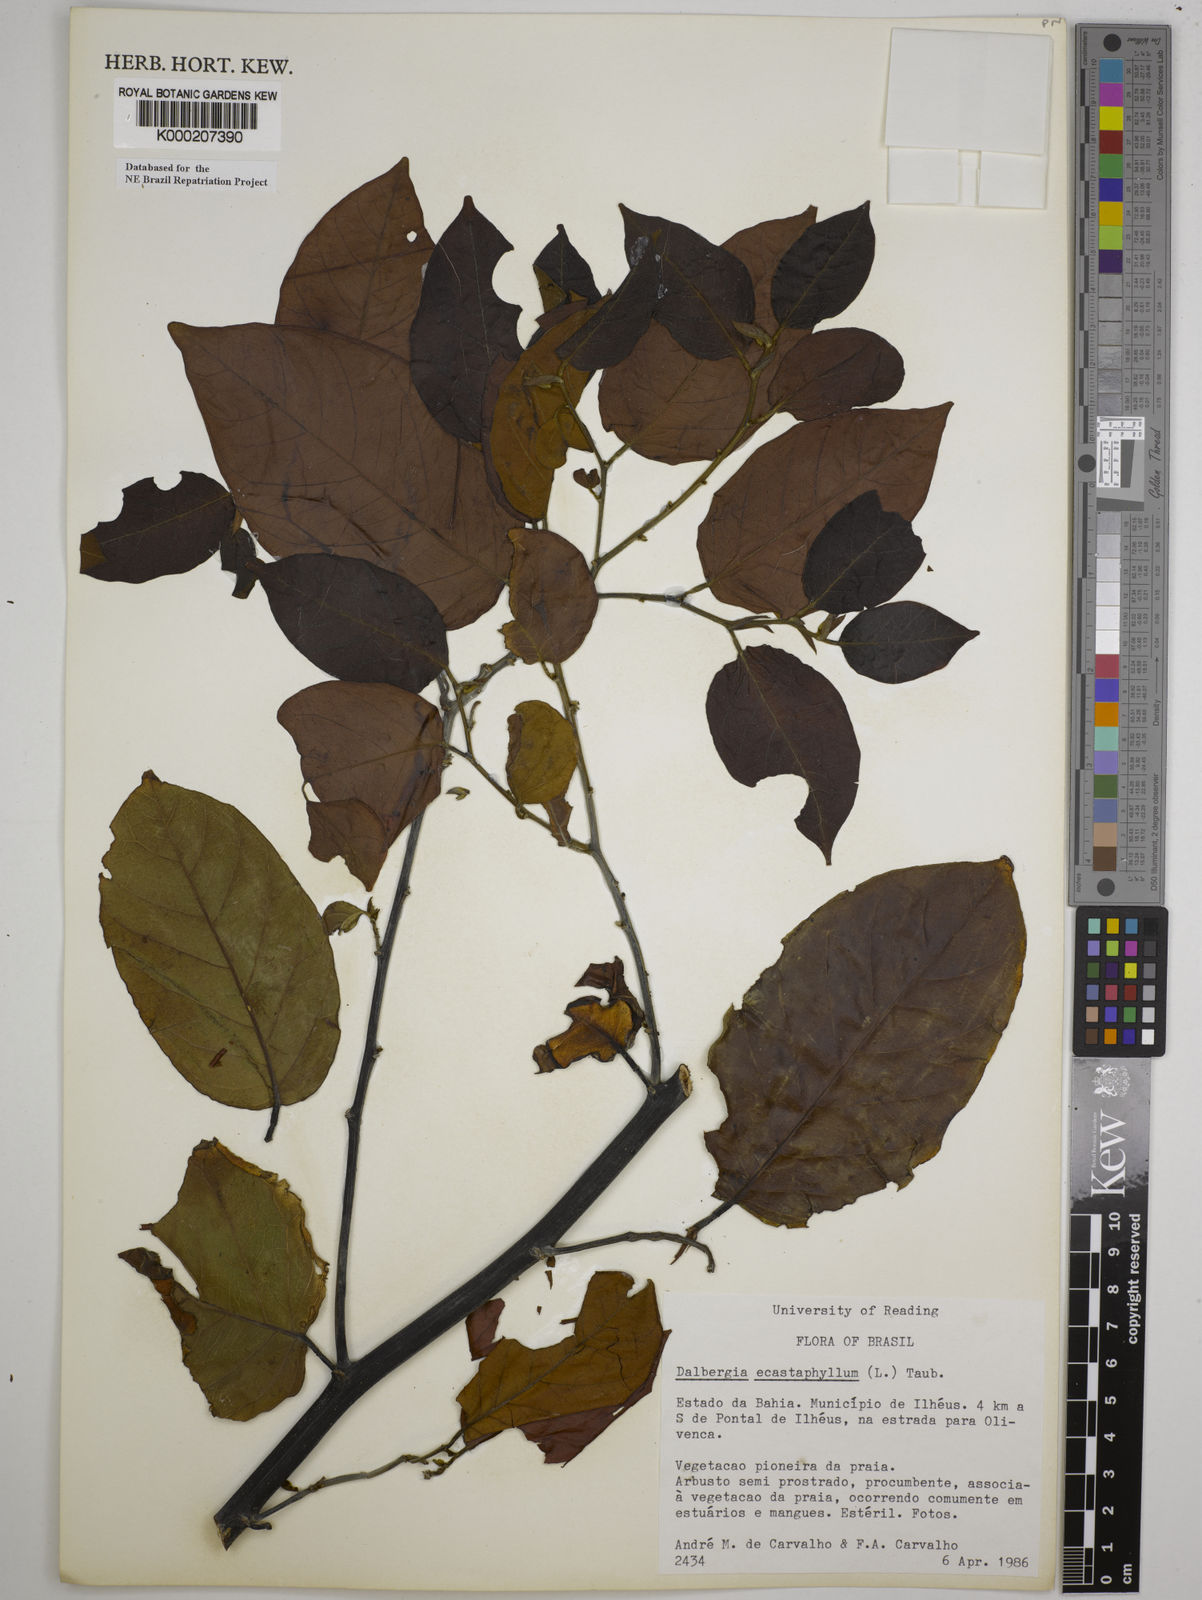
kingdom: Plantae
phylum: Tracheophyta
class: Magnoliopsida
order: Fabales
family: Fabaceae
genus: Dalbergia
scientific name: Dalbergia
